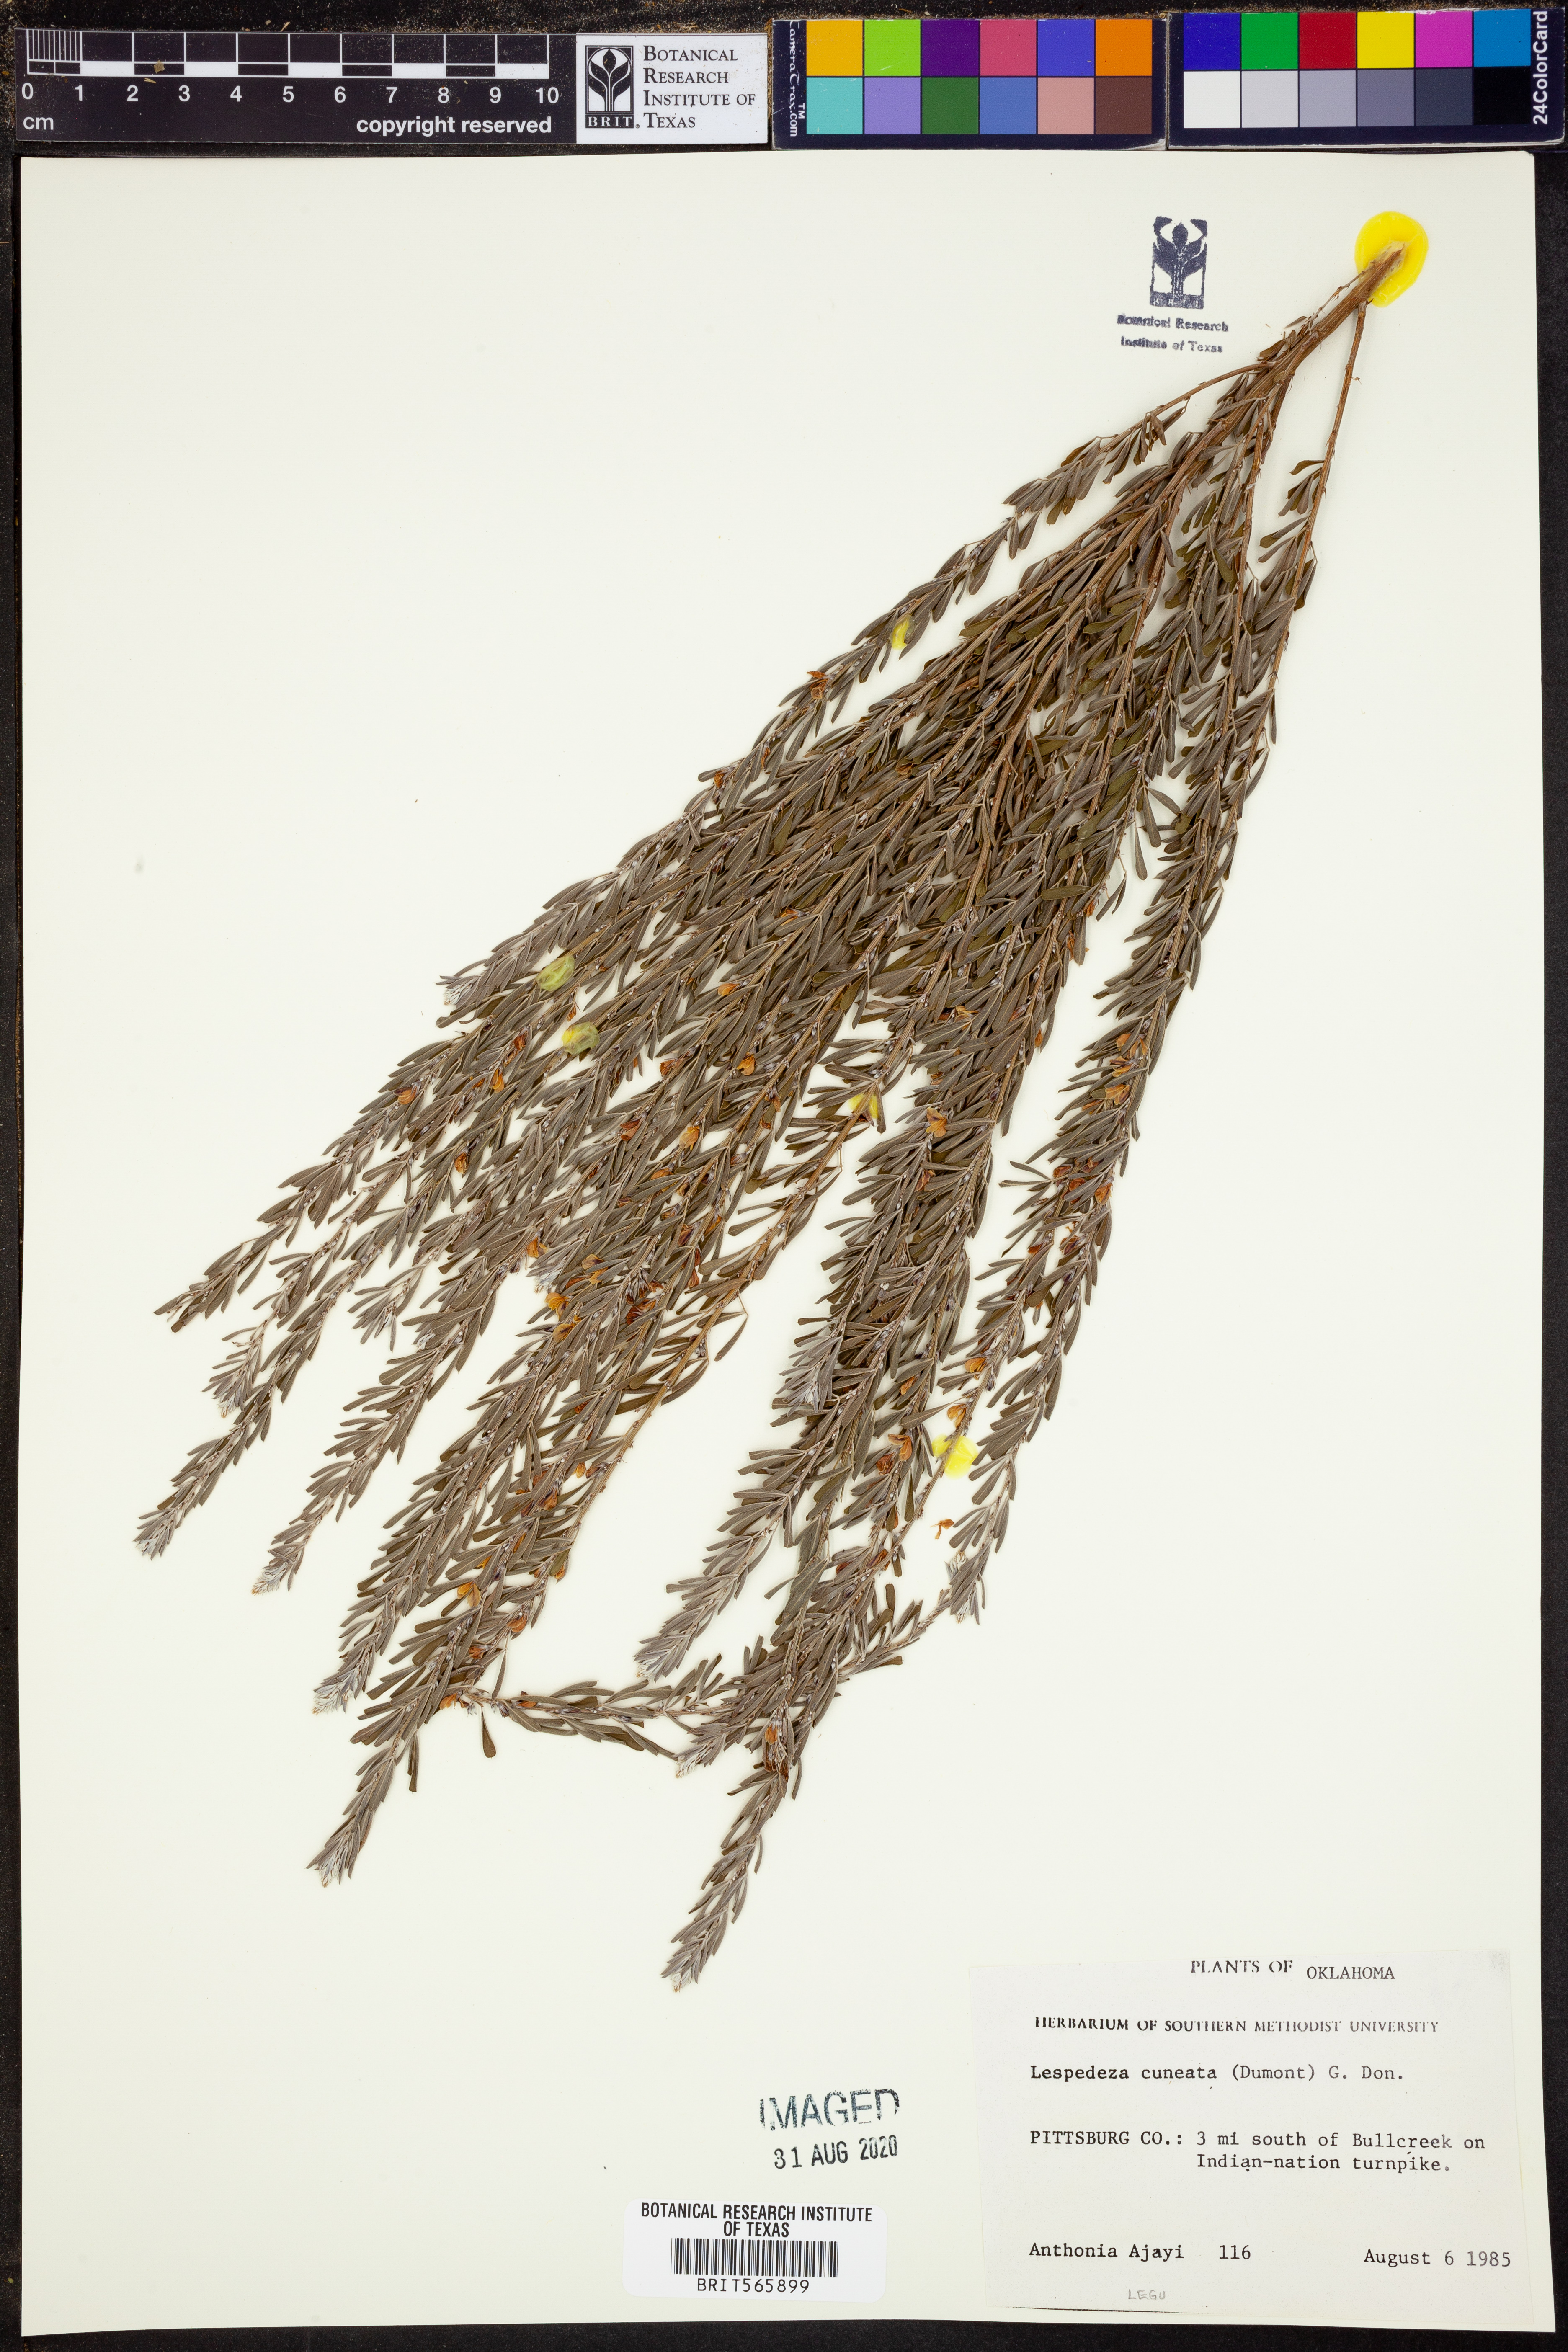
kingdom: Plantae
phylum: Tracheophyta
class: Magnoliopsida
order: Fabales
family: Fabaceae
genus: Lespedeza
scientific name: Lespedeza cuneata
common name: Chinese bush-clover
